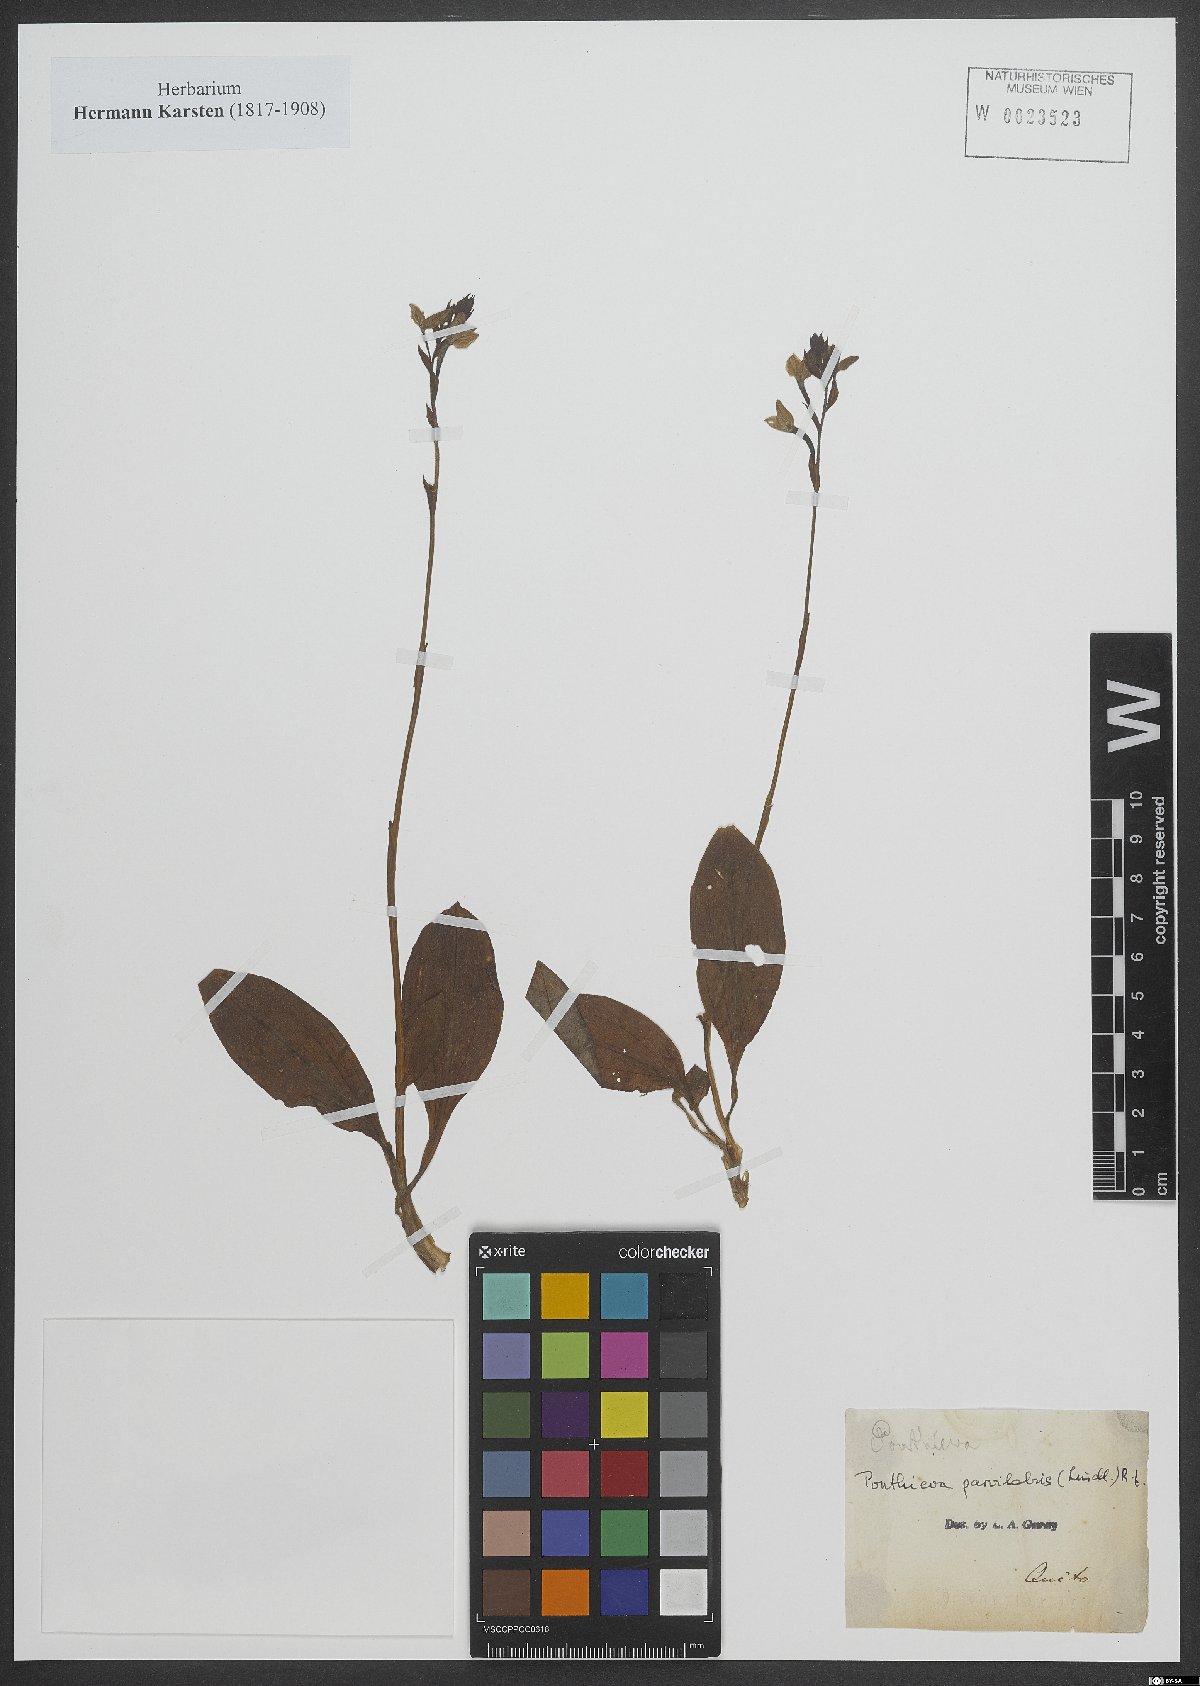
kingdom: Plantae
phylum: Tracheophyta
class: Liliopsida
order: Asparagales
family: Orchidaceae
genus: Ponthieva
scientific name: Ponthieva
